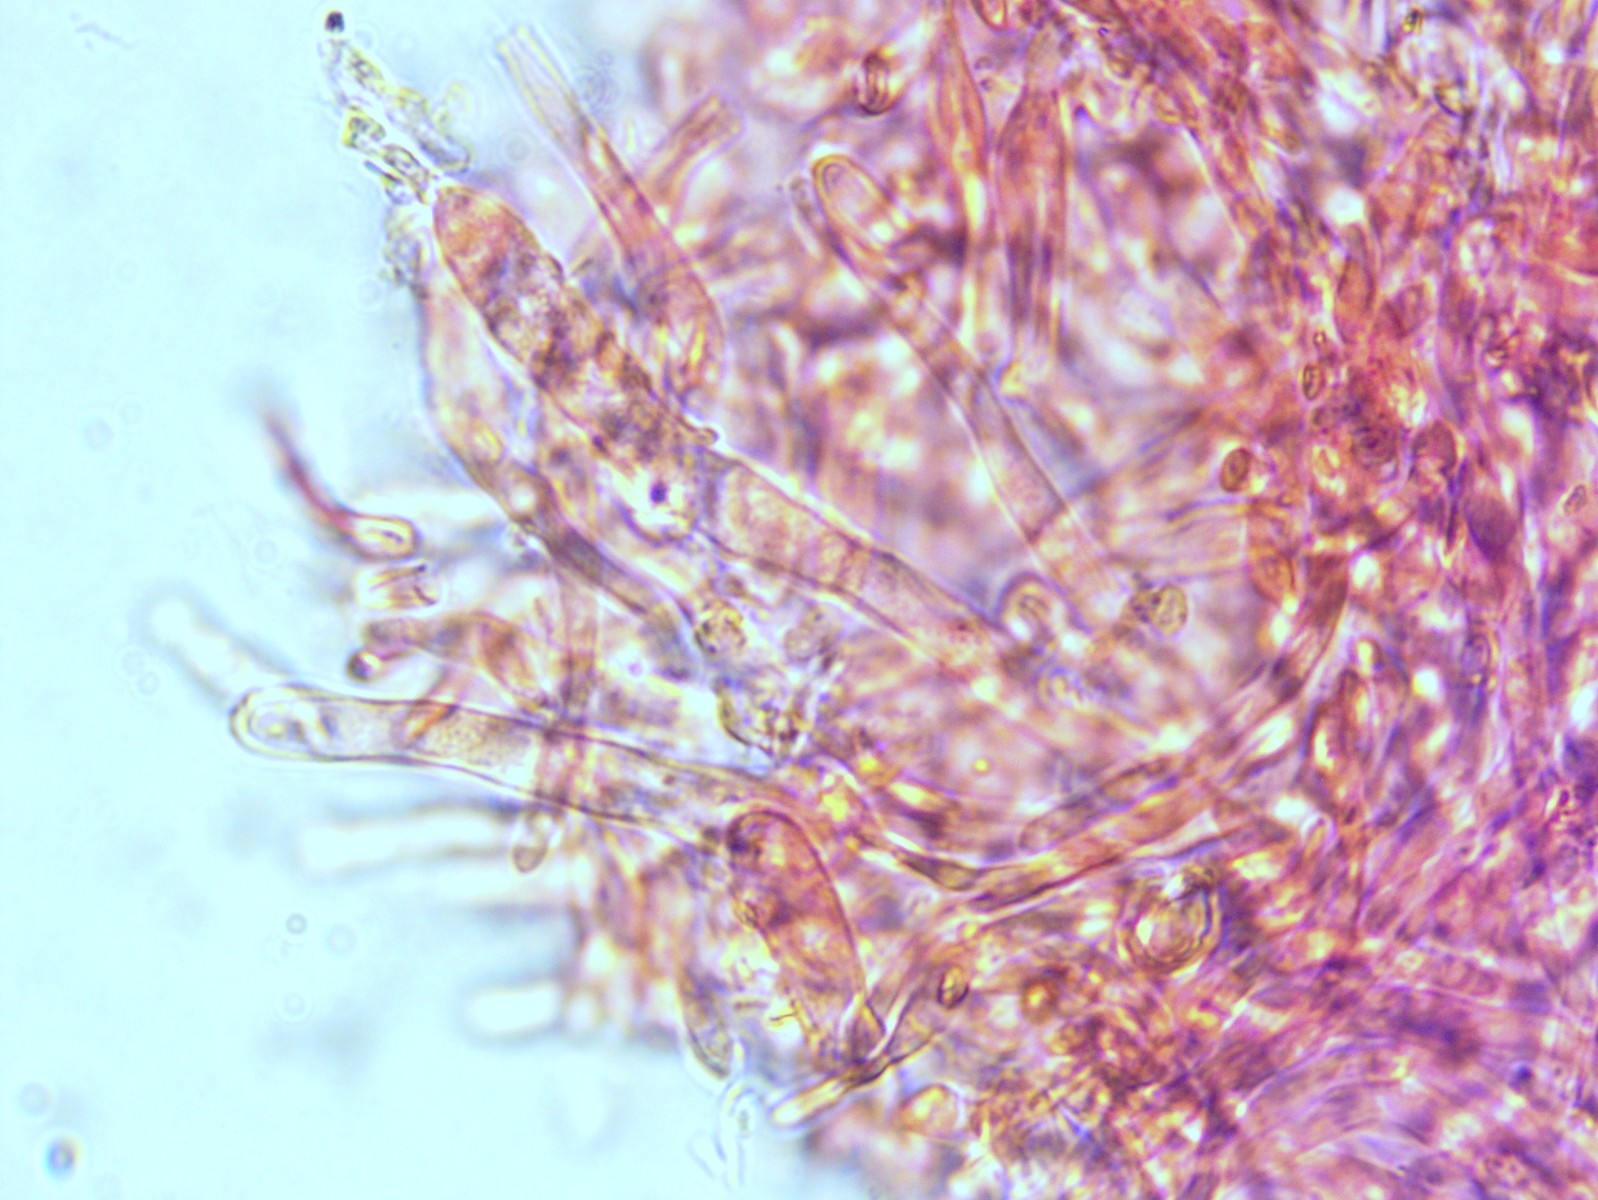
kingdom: Fungi
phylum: Basidiomycota
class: Agaricomycetes
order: Russulales
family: Russulaceae
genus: Russula
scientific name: Russula amoenoides
